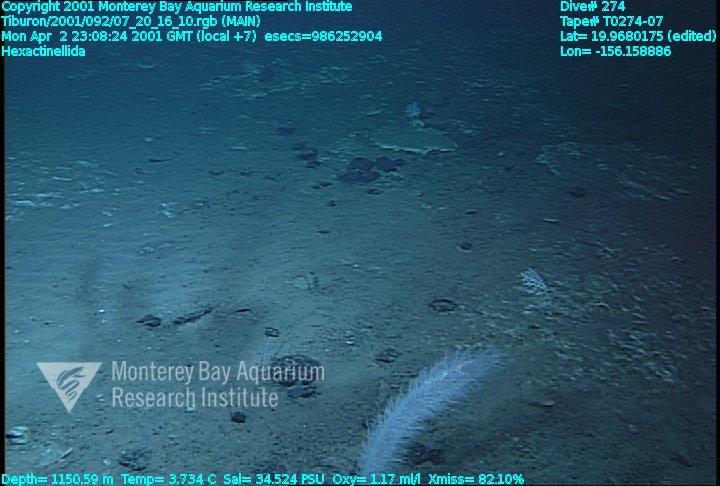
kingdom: Animalia
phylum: Porifera
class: Hexactinellida
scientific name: Hexactinellida
